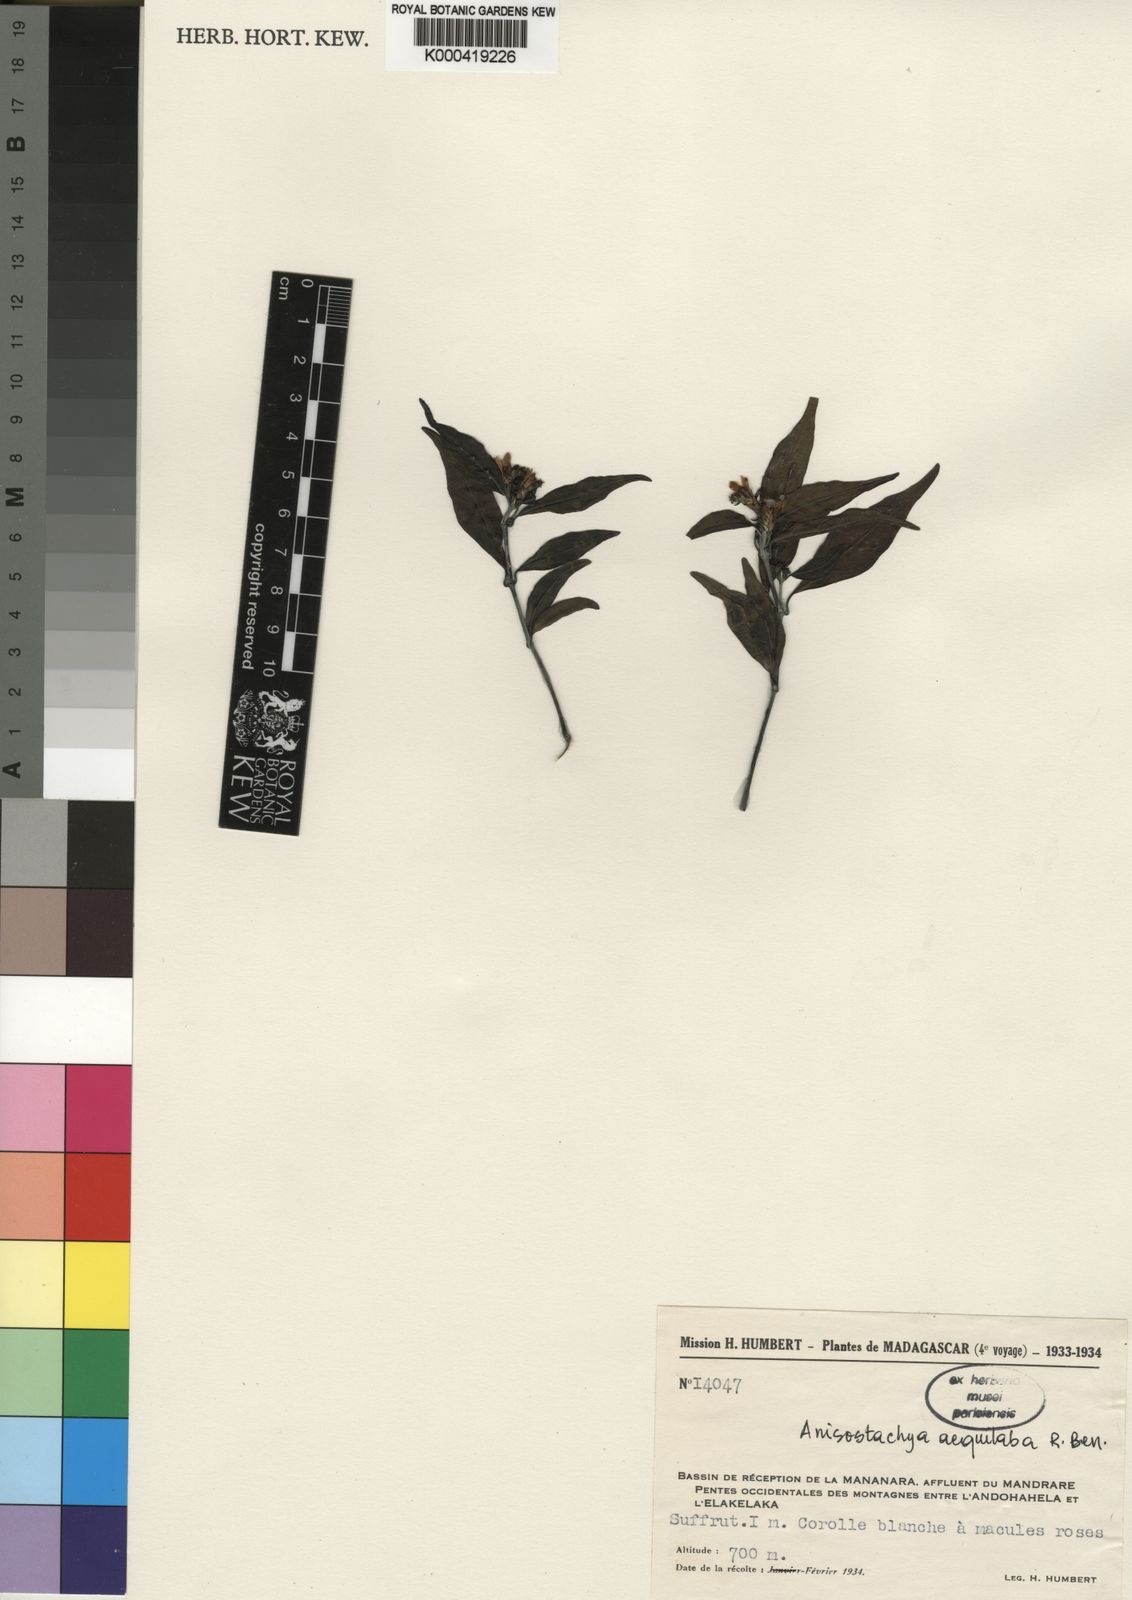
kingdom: Plantae
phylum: Tracheophyta
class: Magnoliopsida
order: Lamiales
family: Acanthaceae
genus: Justicia
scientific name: Justicia
